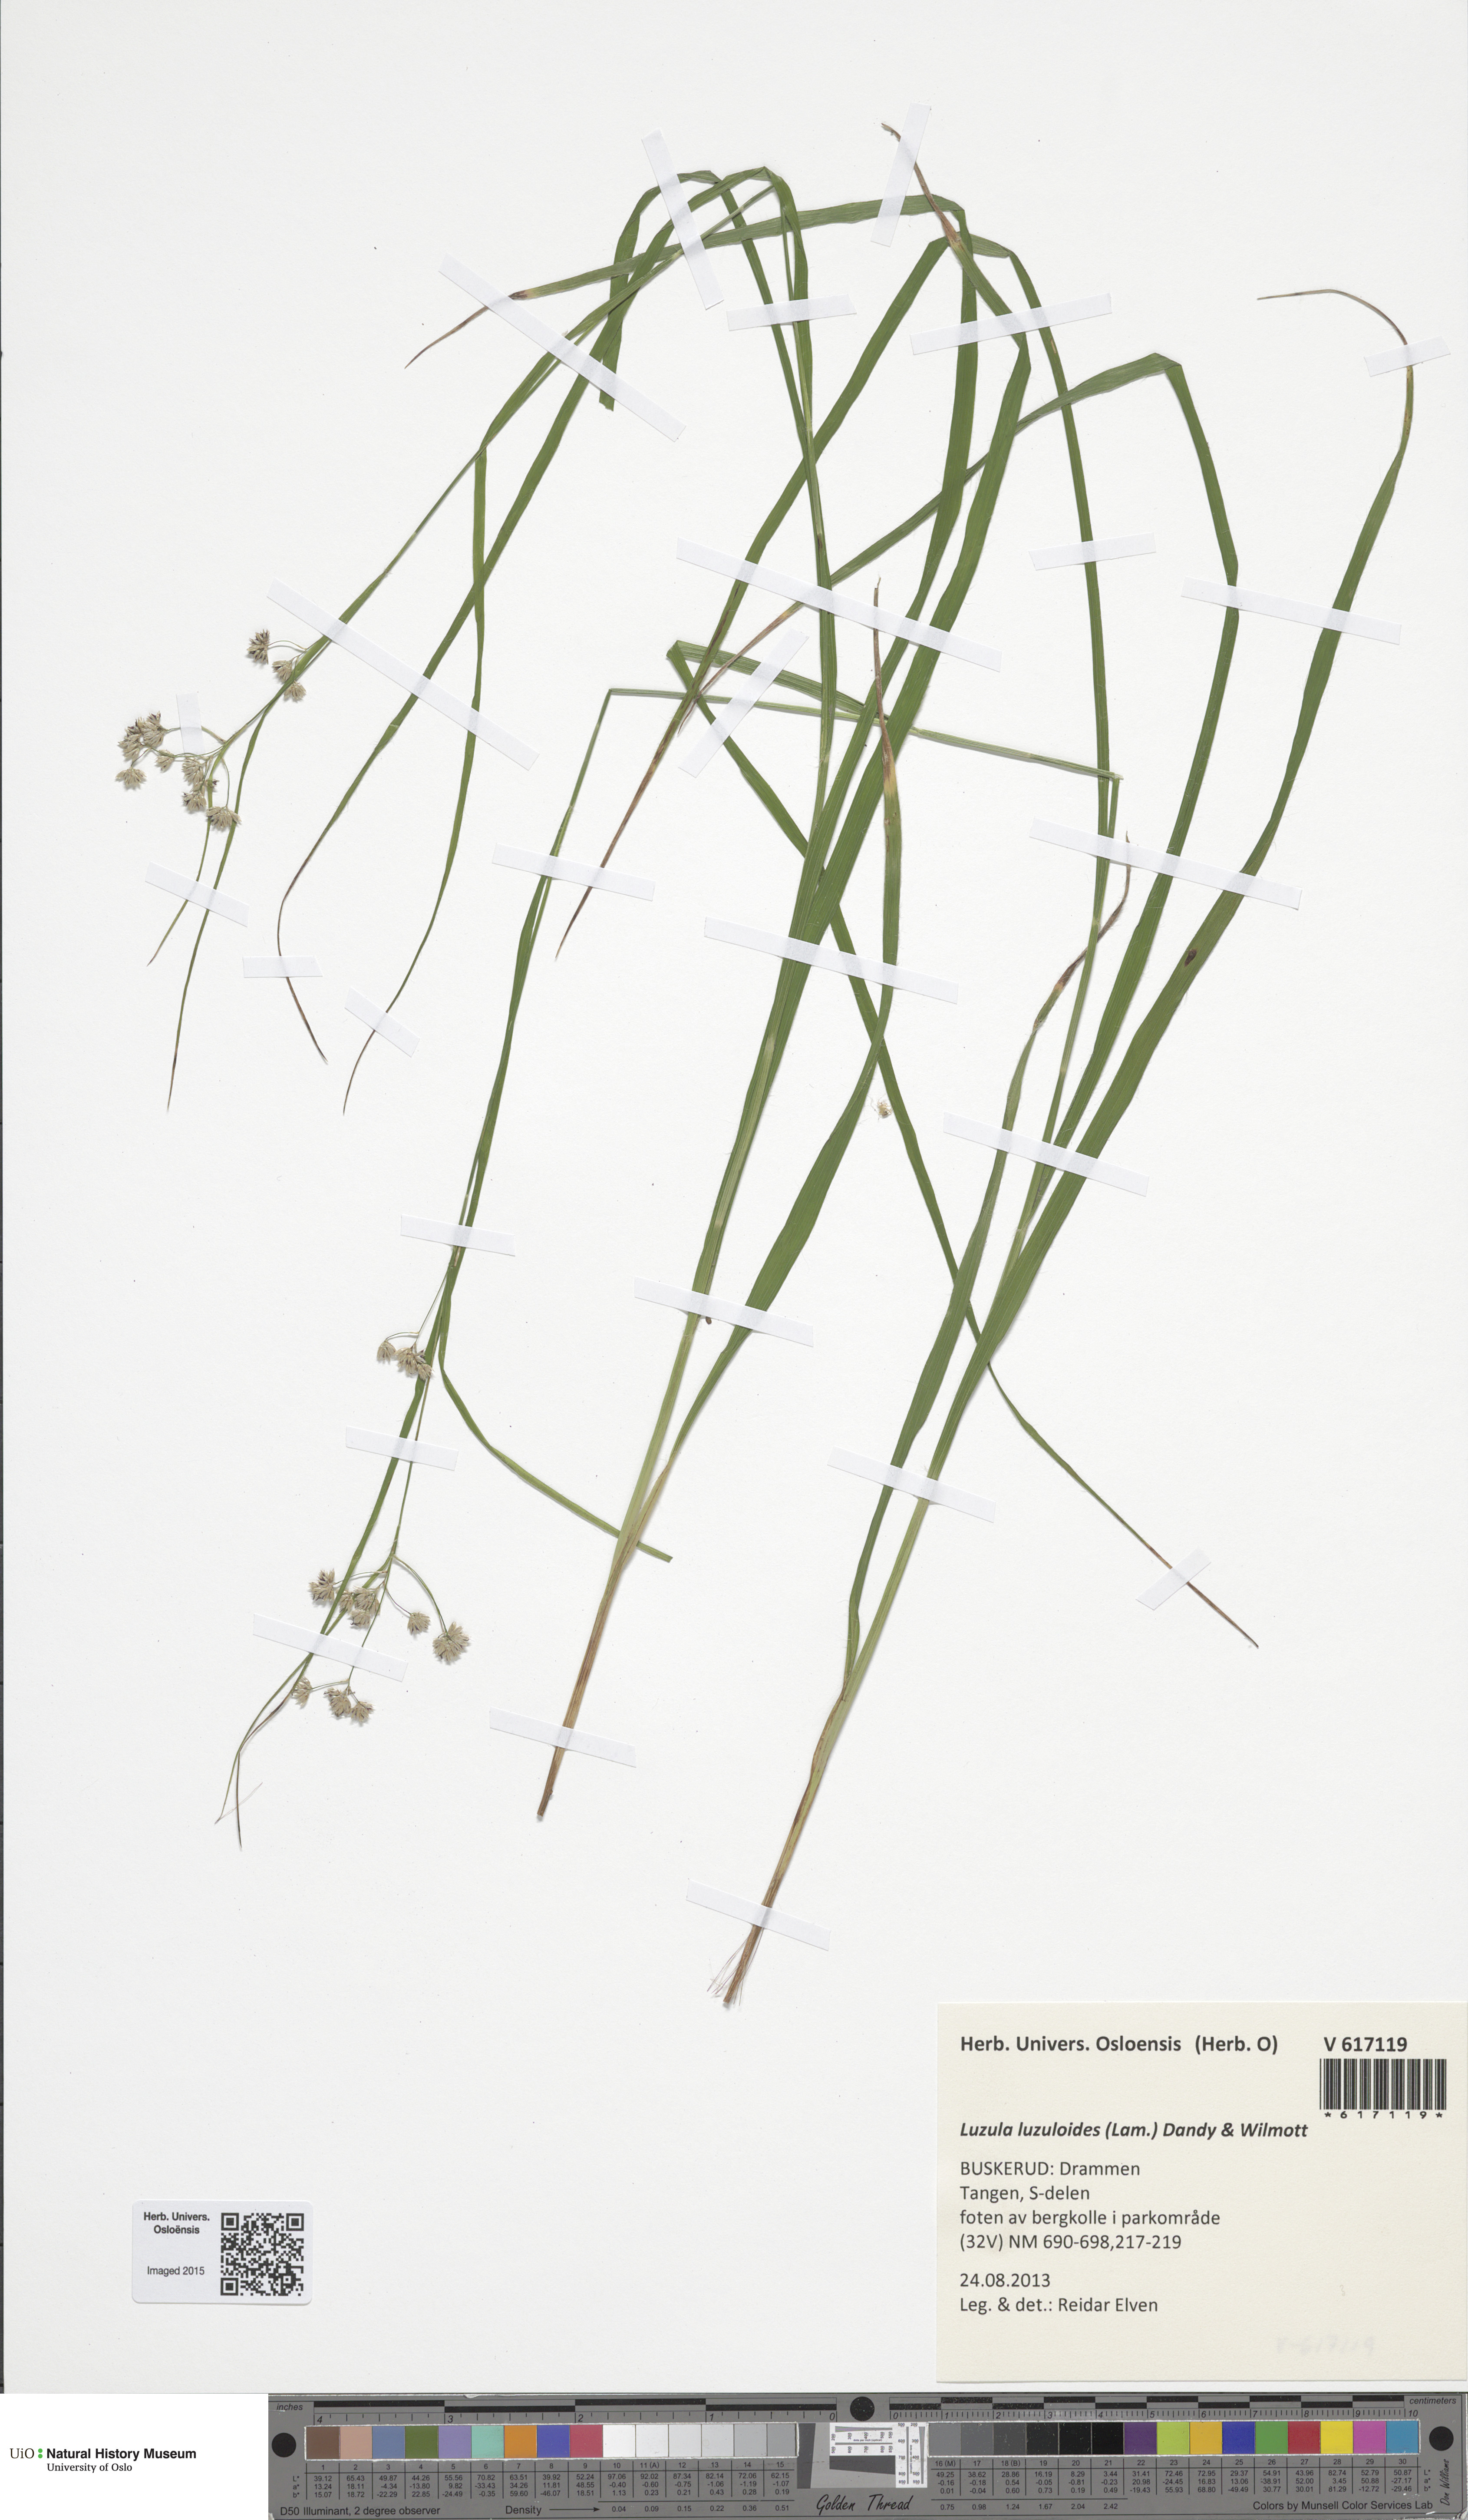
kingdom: Plantae
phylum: Tracheophyta
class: Liliopsida
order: Poales
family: Juncaceae
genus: Luzula
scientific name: Luzula luzuloides
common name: White wood-rush
